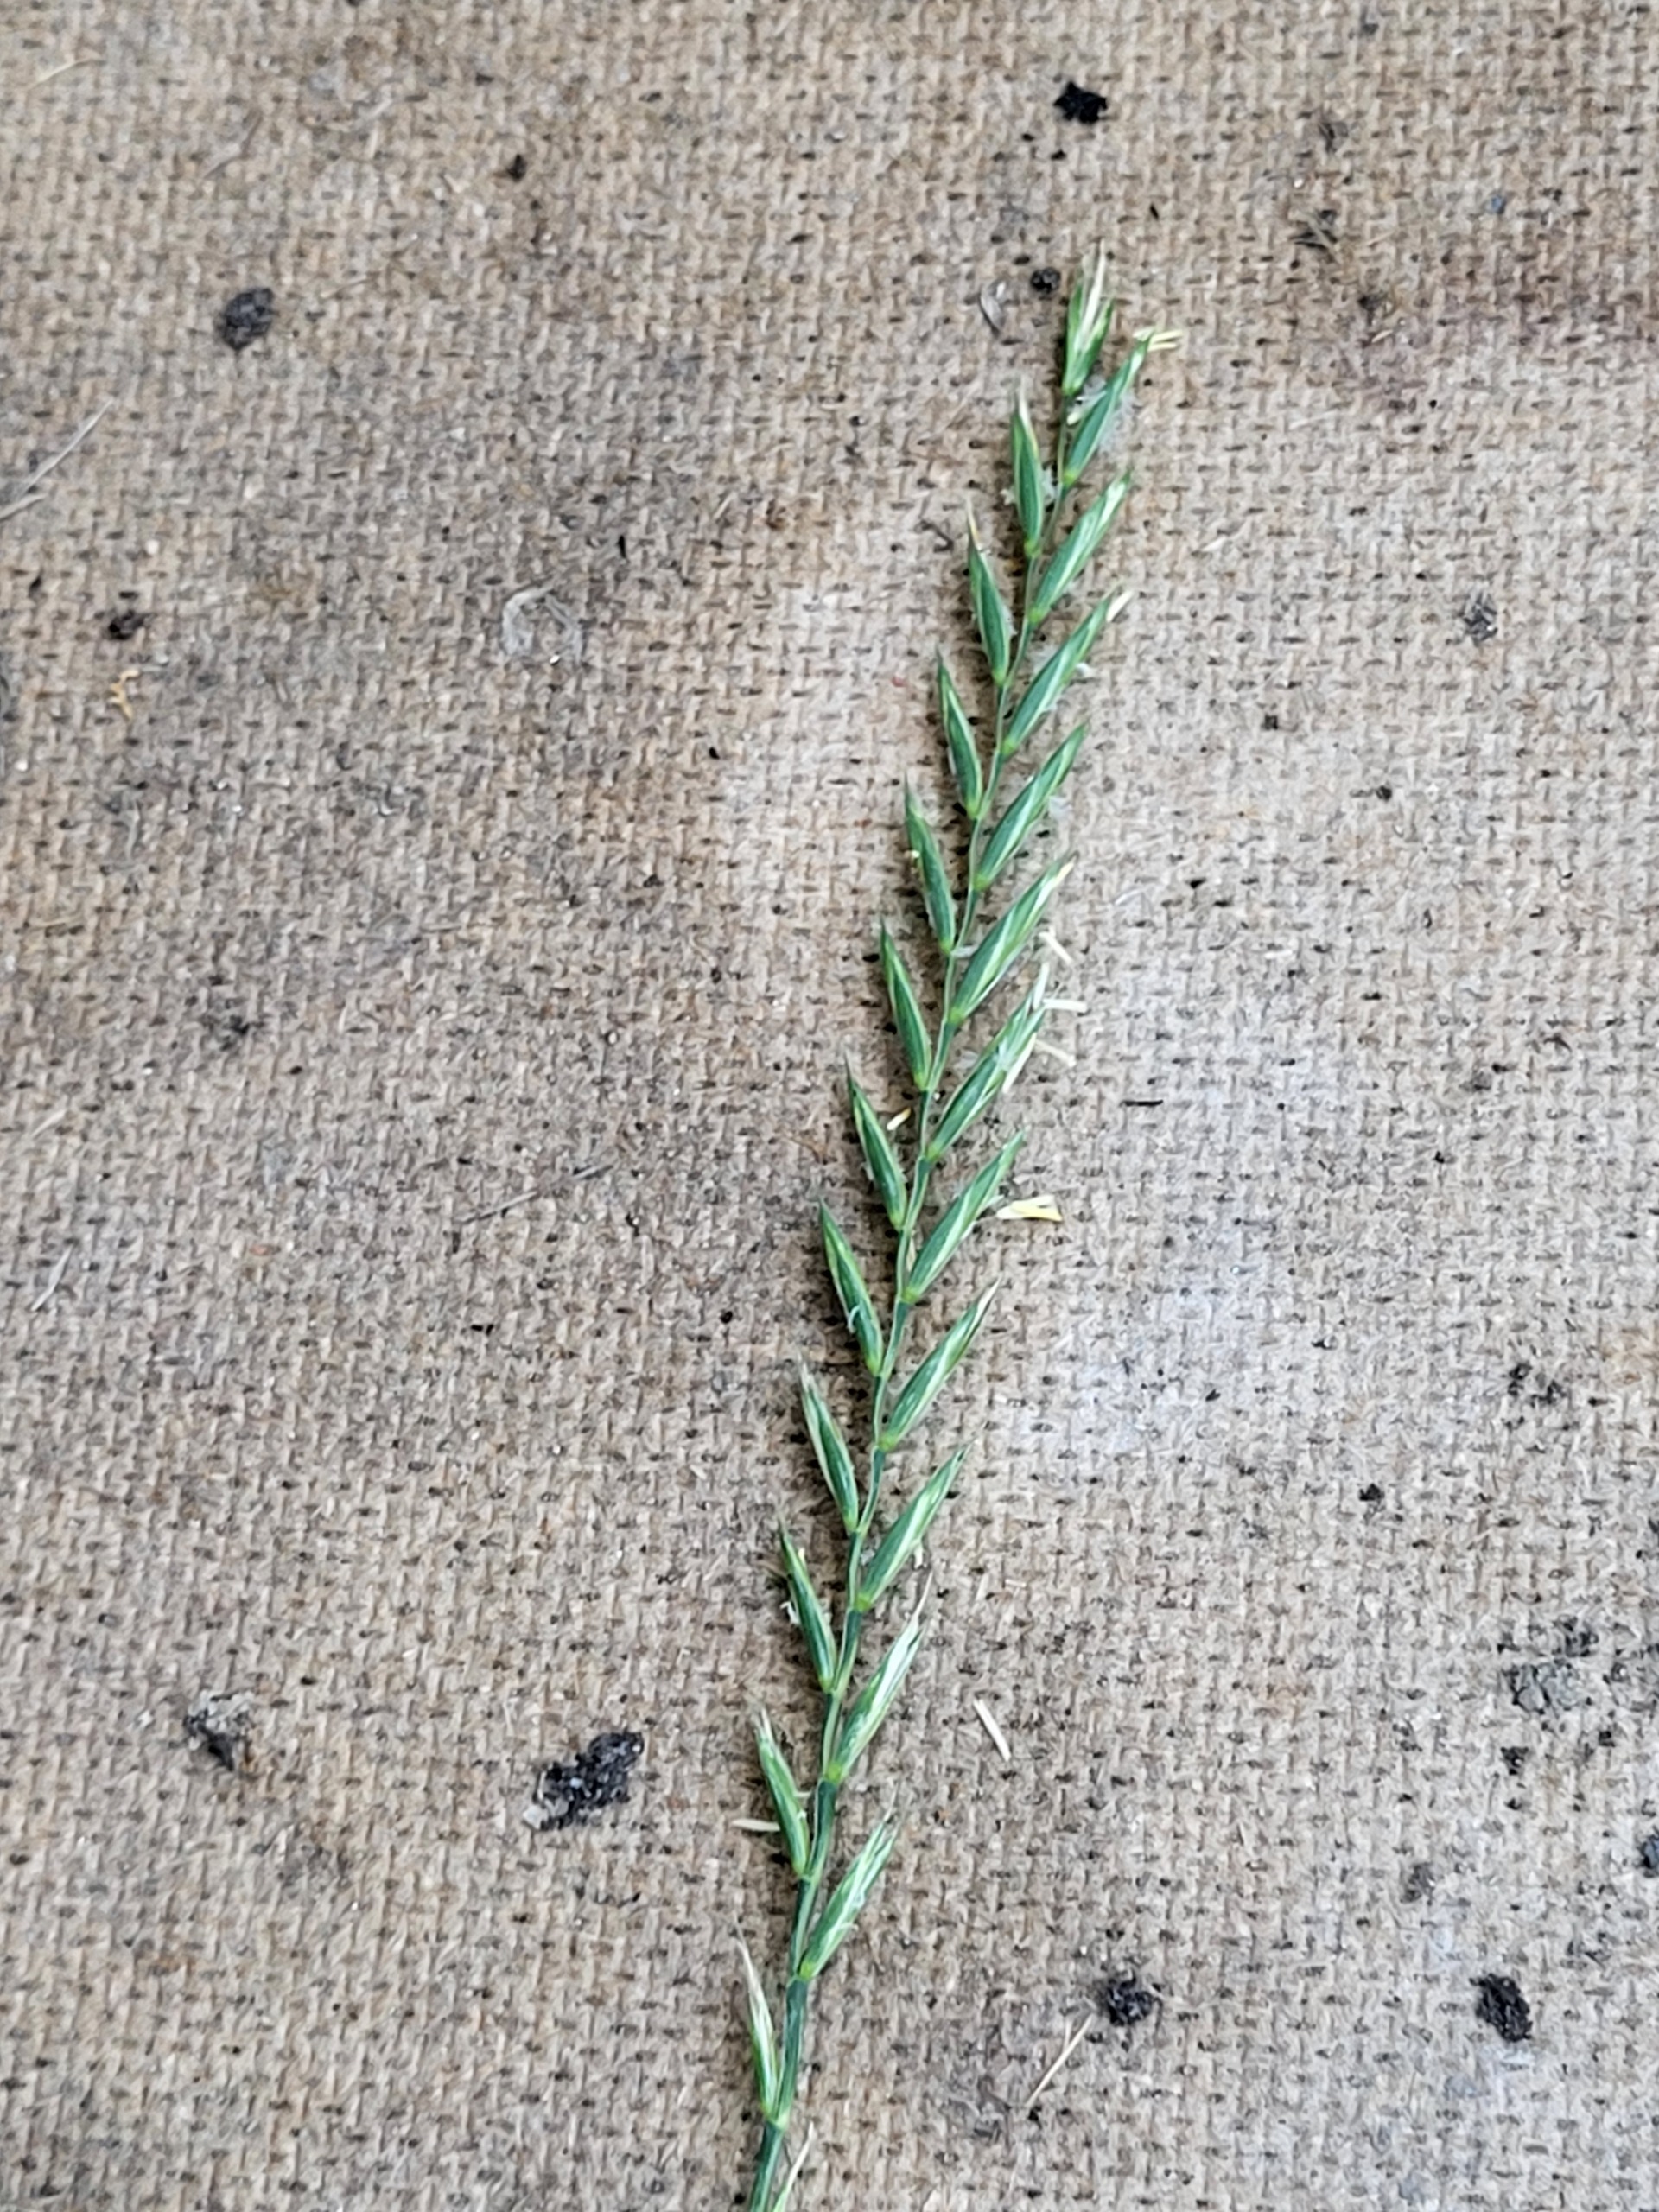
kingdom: Plantae
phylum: Tracheophyta
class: Liliopsida
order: Poales
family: Poaceae
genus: Elymus
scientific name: Elymus repens
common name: Almindelig kvik
